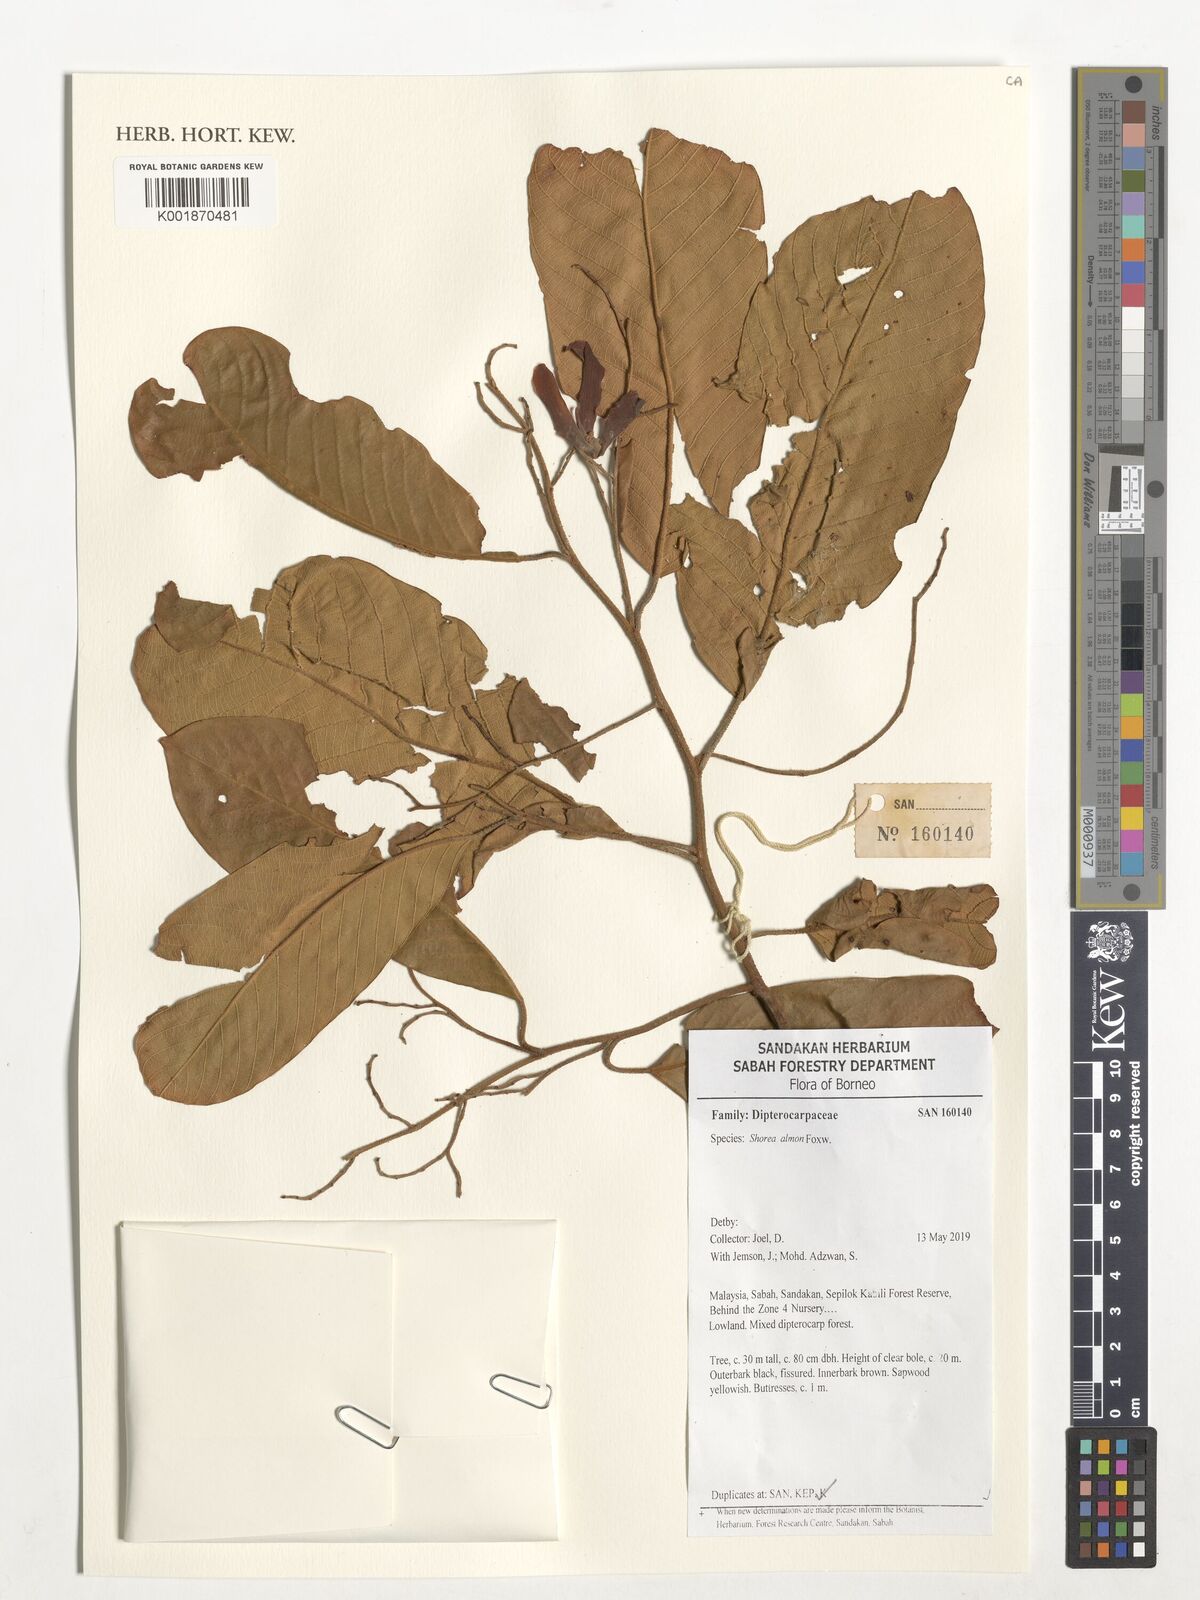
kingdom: Plantae
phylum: Tracheophyta
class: Magnoliopsida
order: Malvales
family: Dipterocarpaceae
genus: Shorea
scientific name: Shorea almon
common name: Light red meranti
